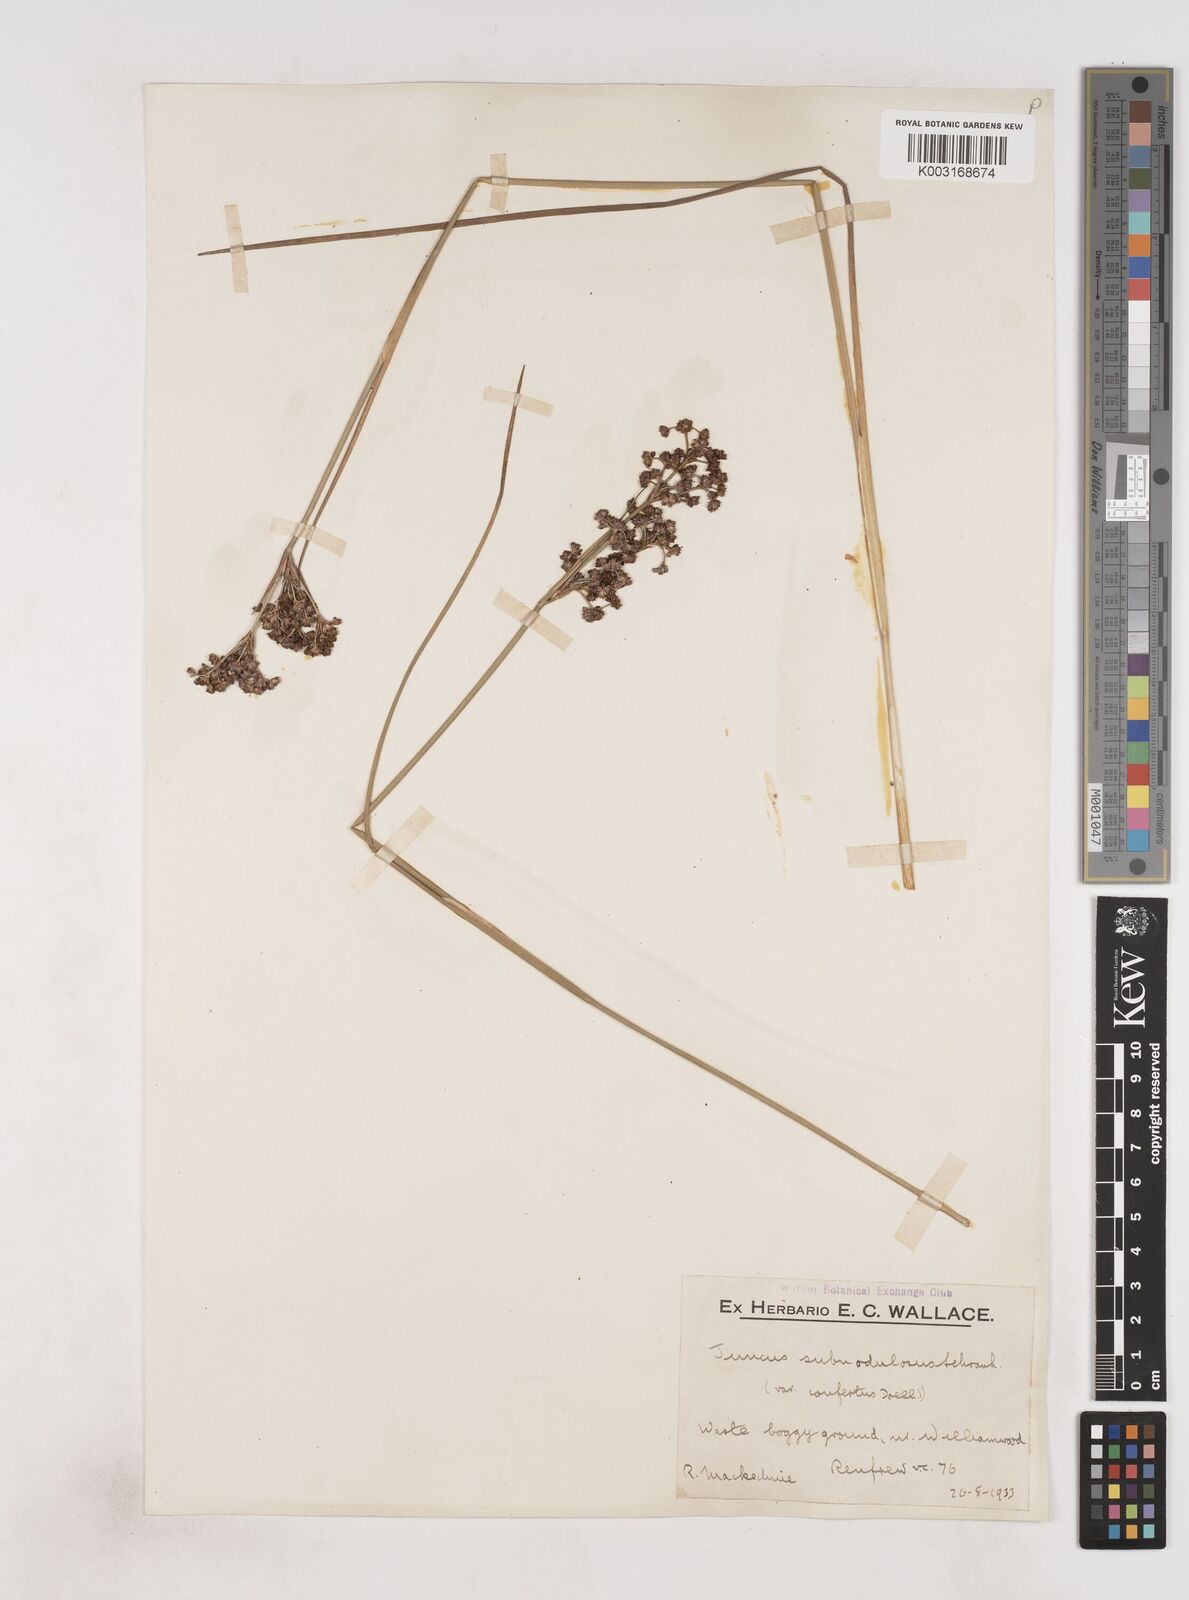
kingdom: Plantae
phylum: Tracheophyta
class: Liliopsida
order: Poales
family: Juncaceae
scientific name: Juncaceae
